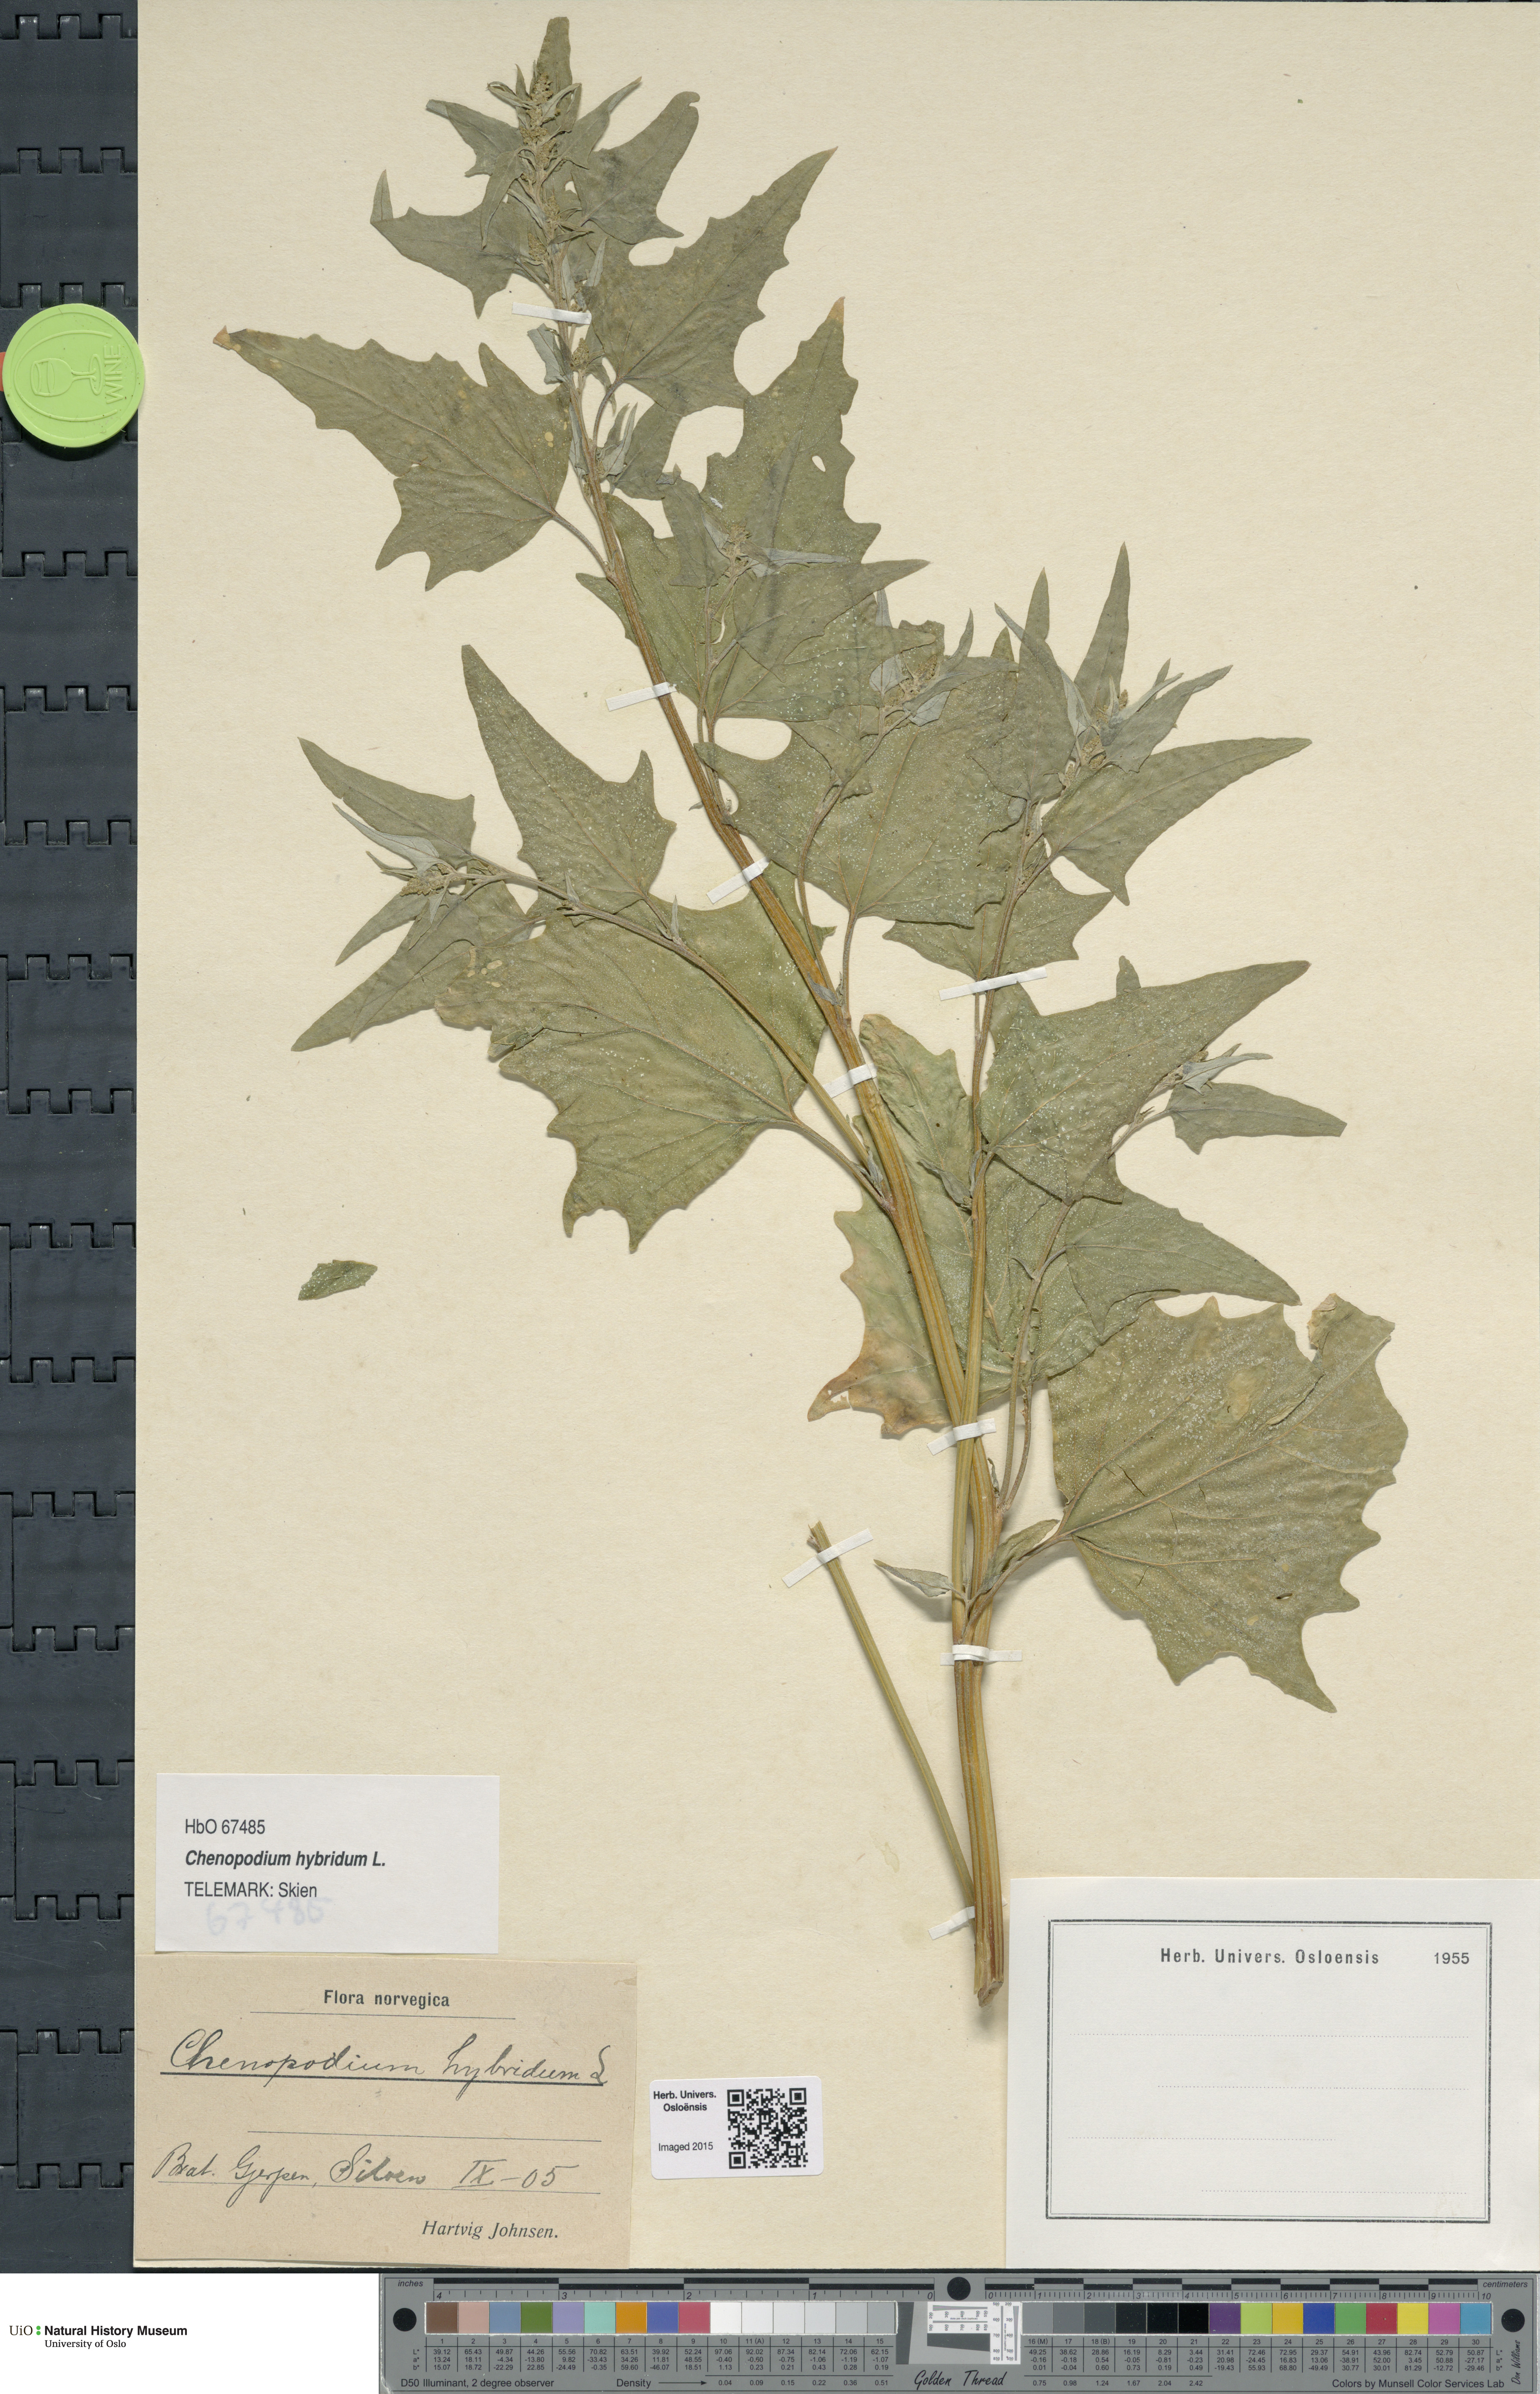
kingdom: Plantae
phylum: Tracheophyta
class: Magnoliopsida
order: Caryophyllales
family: Amaranthaceae
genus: Chenopodiastrum
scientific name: Chenopodiastrum hybridum
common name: Mapleleaf goosefoot
